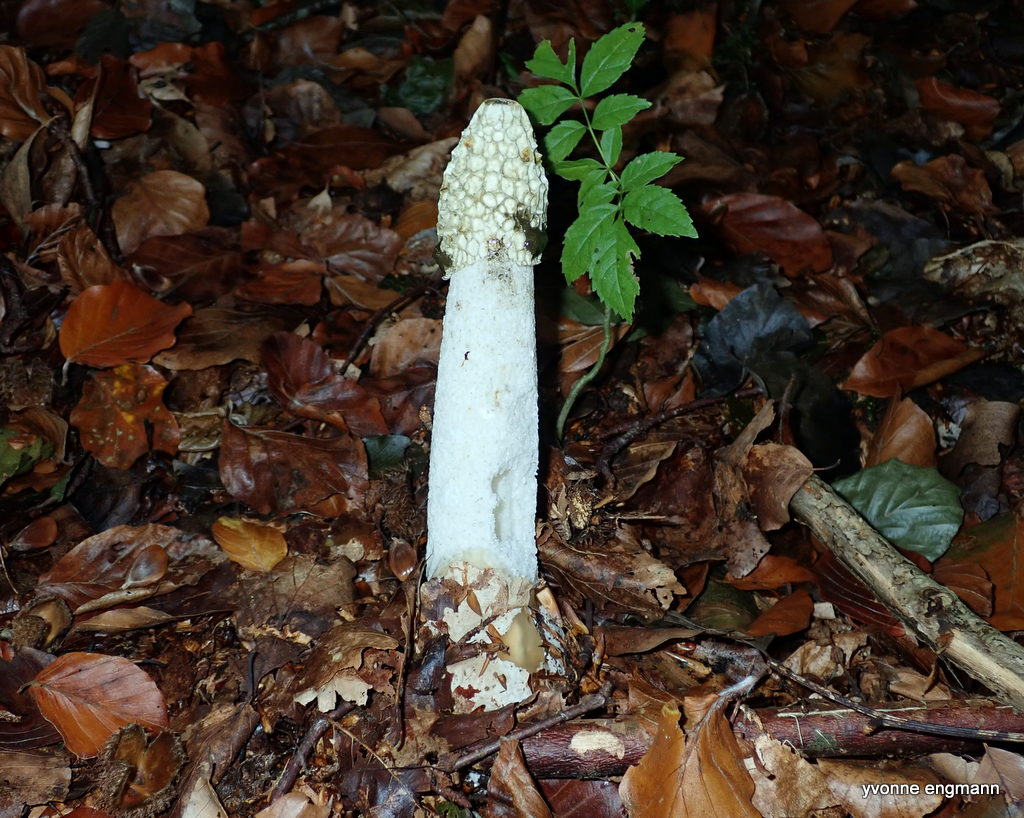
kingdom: Fungi
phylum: Basidiomycota
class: Agaricomycetes
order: Phallales
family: Phallaceae
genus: Phallus
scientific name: Phallus impudicus
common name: almindelig stinksvamp
